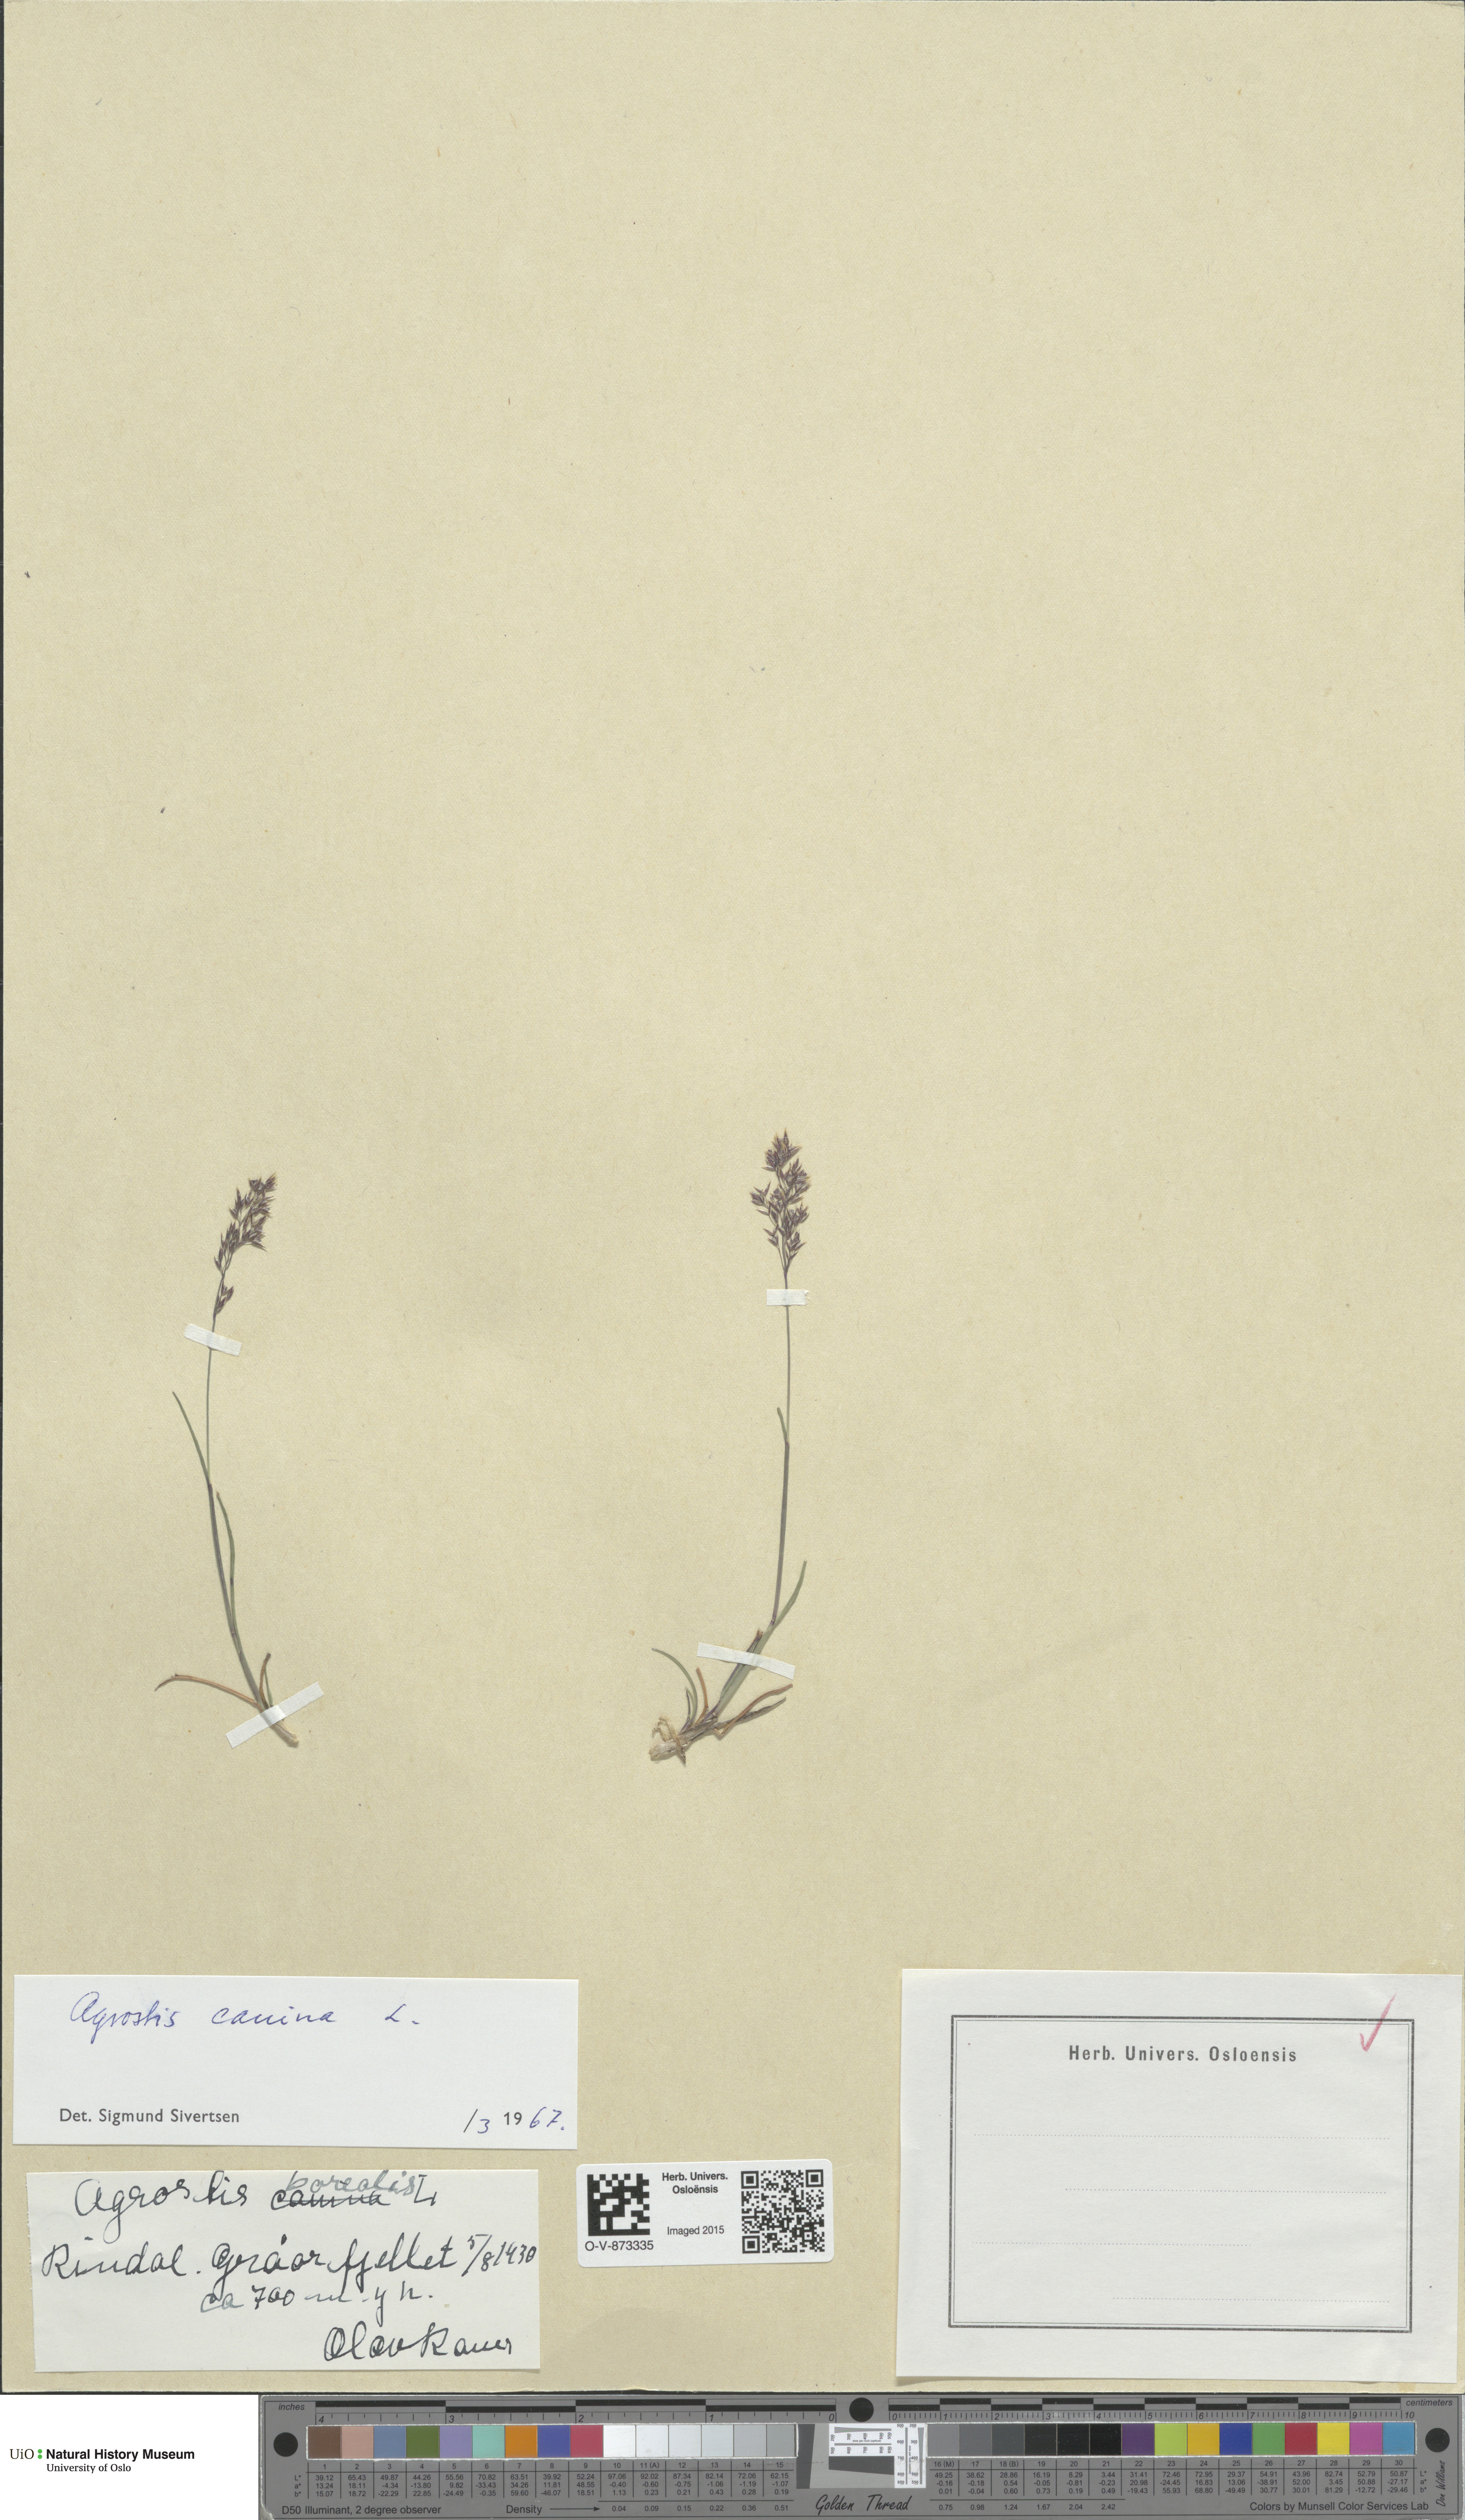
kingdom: Plantae
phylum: Tracheophyta
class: Liliopsida
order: Poales
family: Poaceae
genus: Agrostis
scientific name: Agrostis canina
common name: Velvet bent
